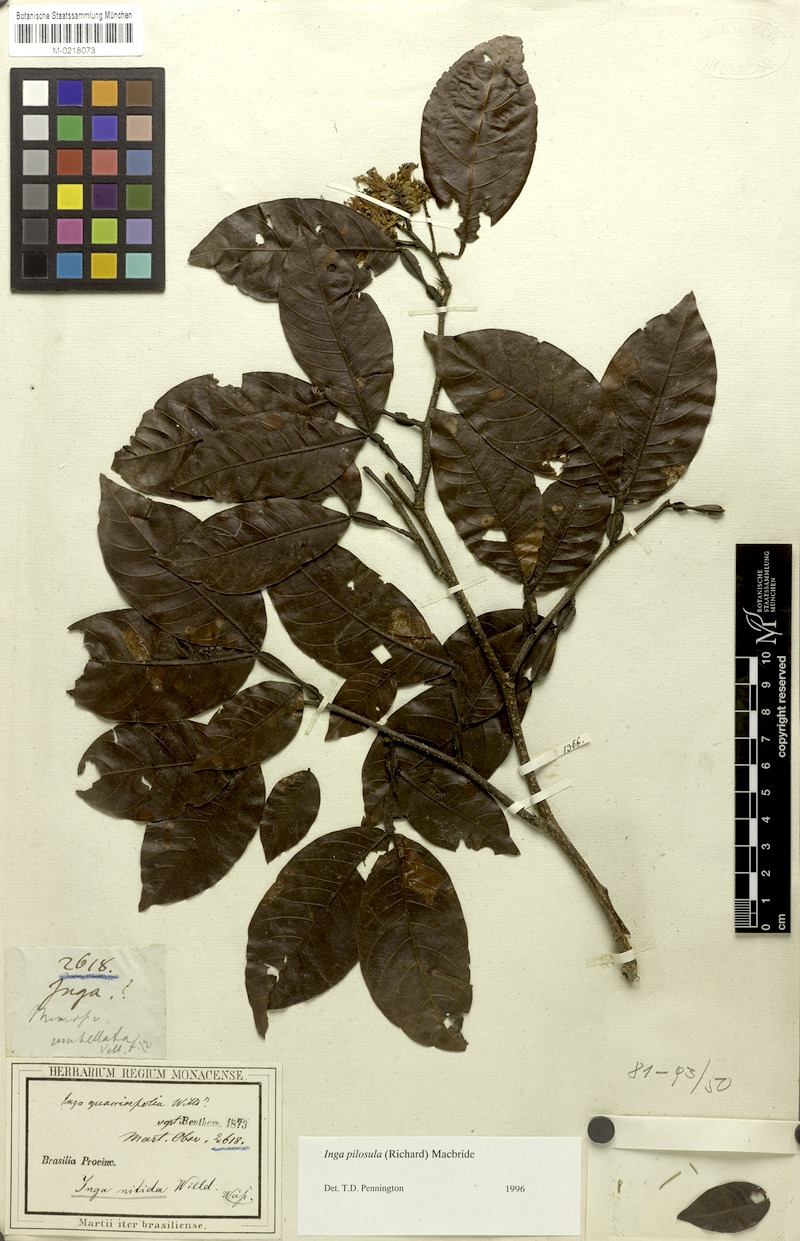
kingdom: Plantae
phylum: Tracheophyta
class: Magnoliopsida
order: Fabales
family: Fabaceae
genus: Inga
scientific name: Inga pilosula
